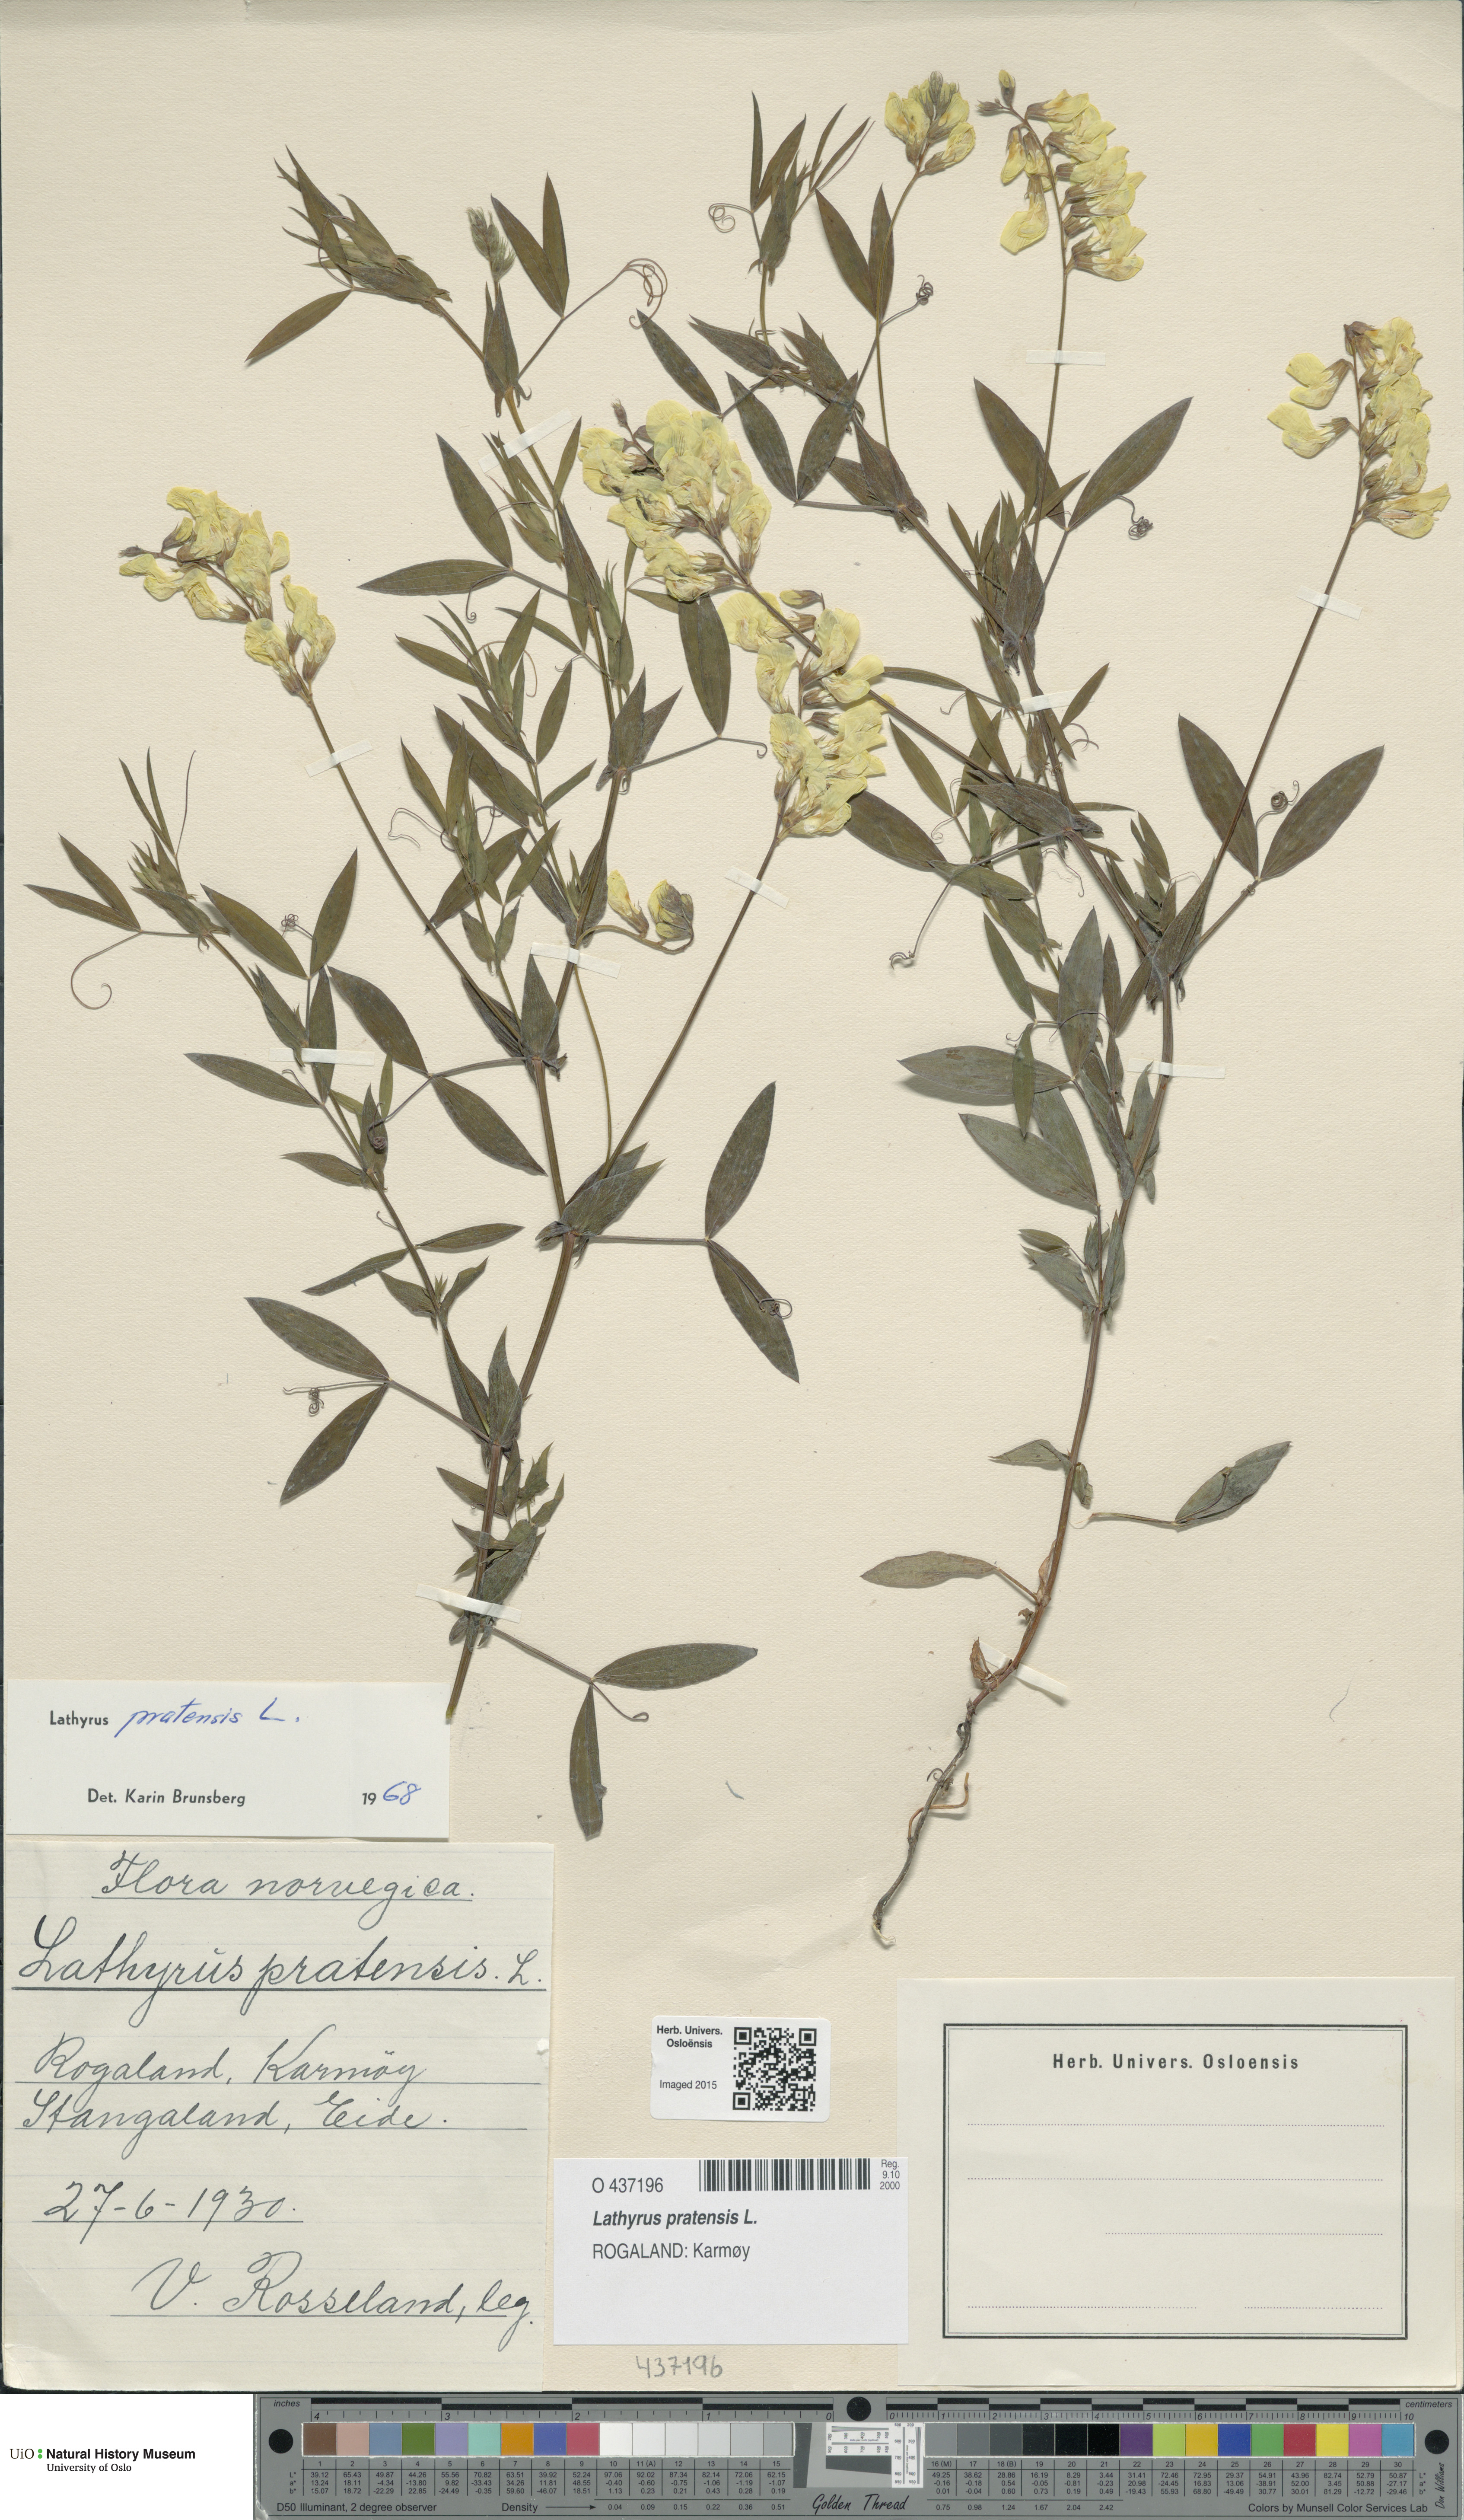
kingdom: Plantae
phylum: Tracheophyta
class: Magnoliopsida
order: Fabales
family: Fabaceae
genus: Lathyrus
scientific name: Lathyrus pratensis
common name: Meadow vetchling
